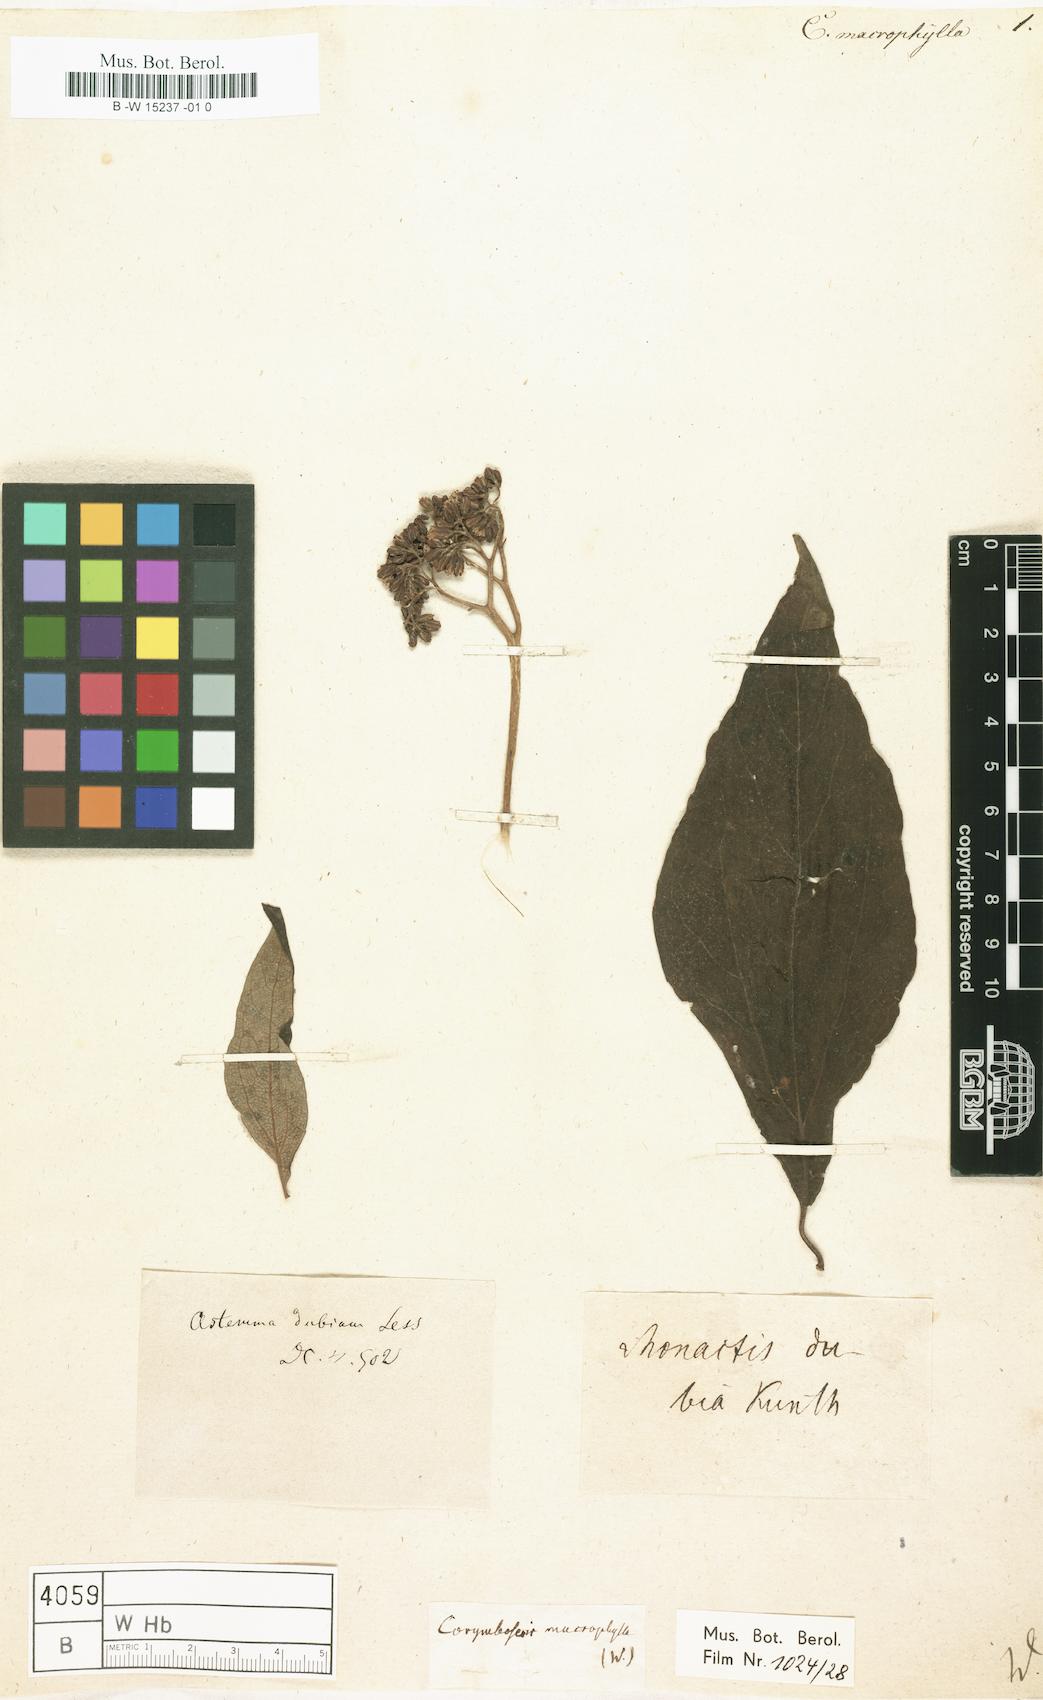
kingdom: Plantae
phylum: Tracheophyta
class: Magnoliopsida
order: Asterales
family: Asteraceae
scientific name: Asteraceae
